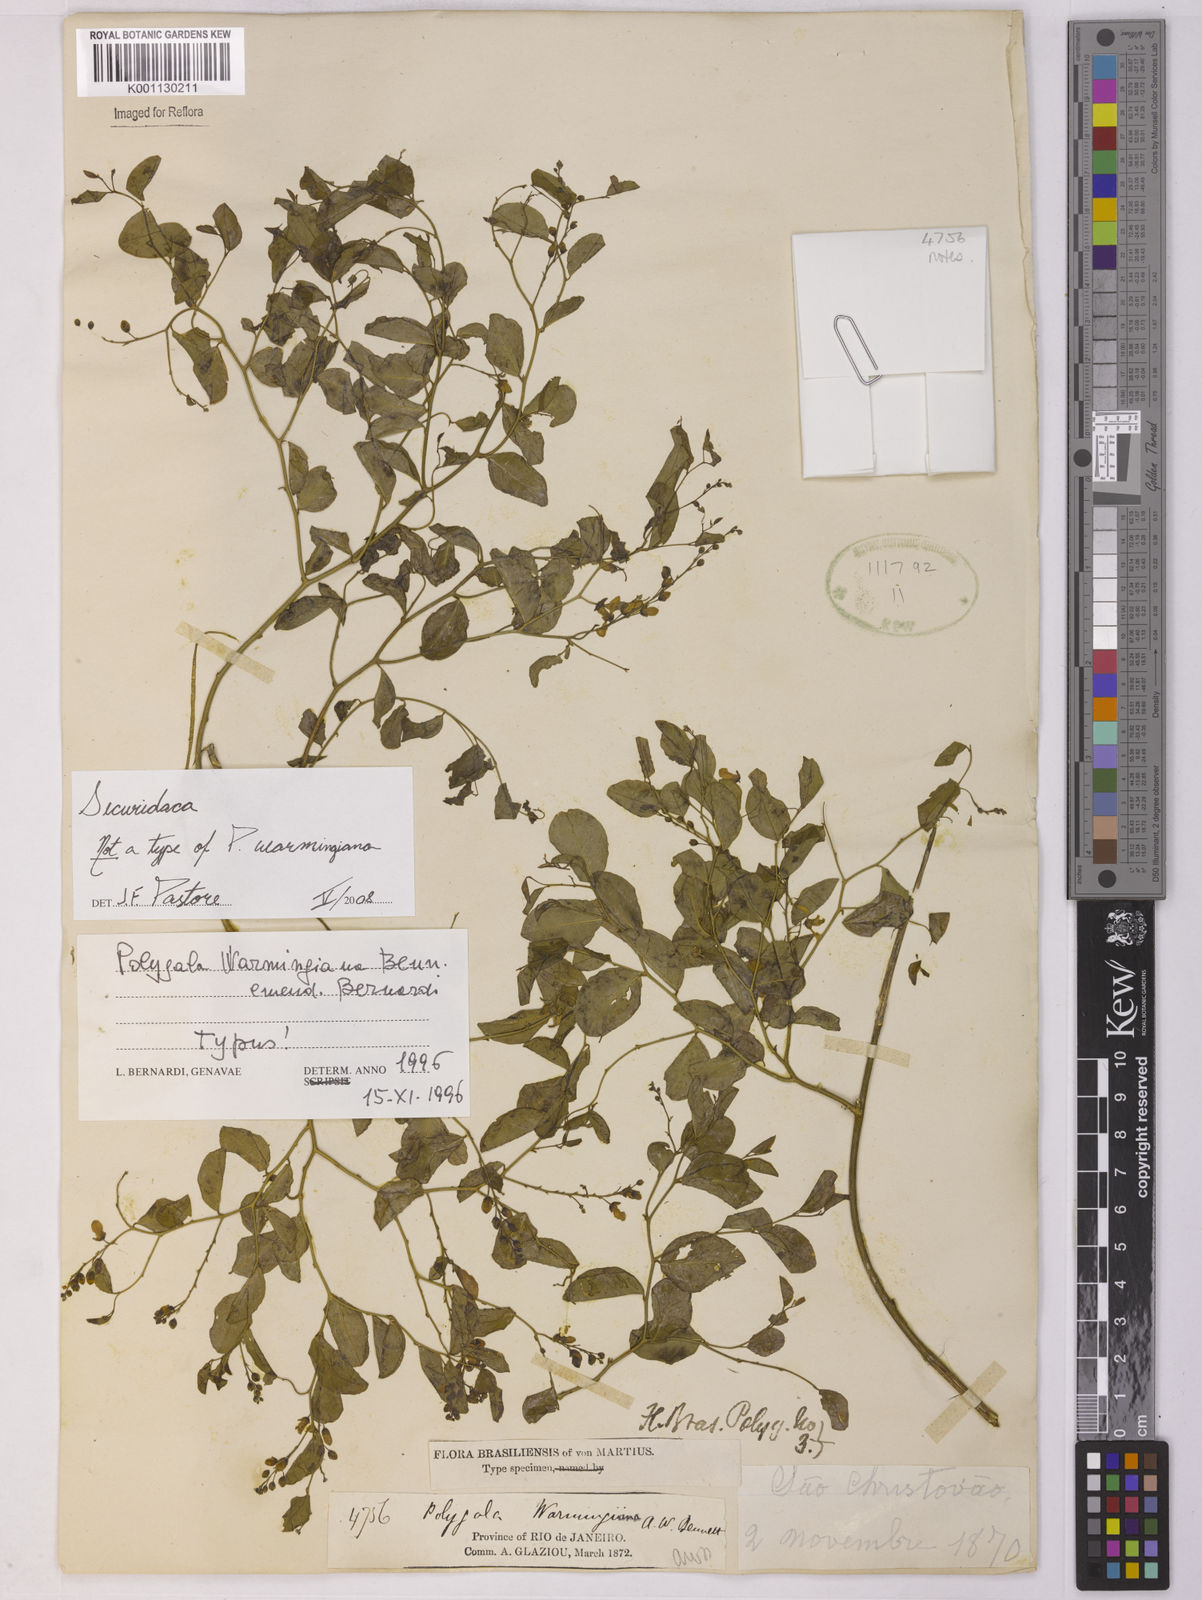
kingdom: Plantae
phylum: Tracheophyta
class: Magnoliopsida
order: Fabales
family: Polygalaceae
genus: Securidaca
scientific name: Securidaca
